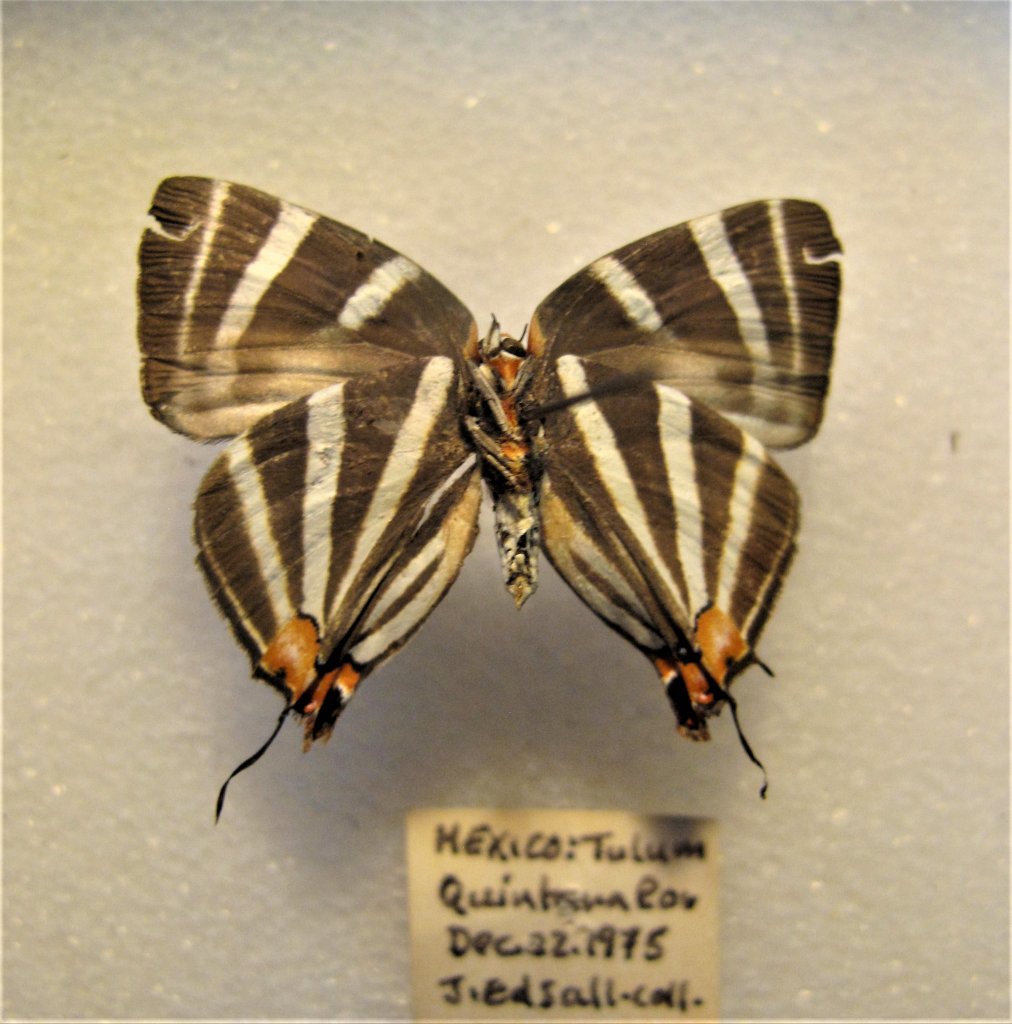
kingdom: Animalia
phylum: Arthropoda
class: Insecta
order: Lepidoptera
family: Lycaenidae
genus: Thecla
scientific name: Thecla bathildis
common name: Zebra-striped Hairstreak
